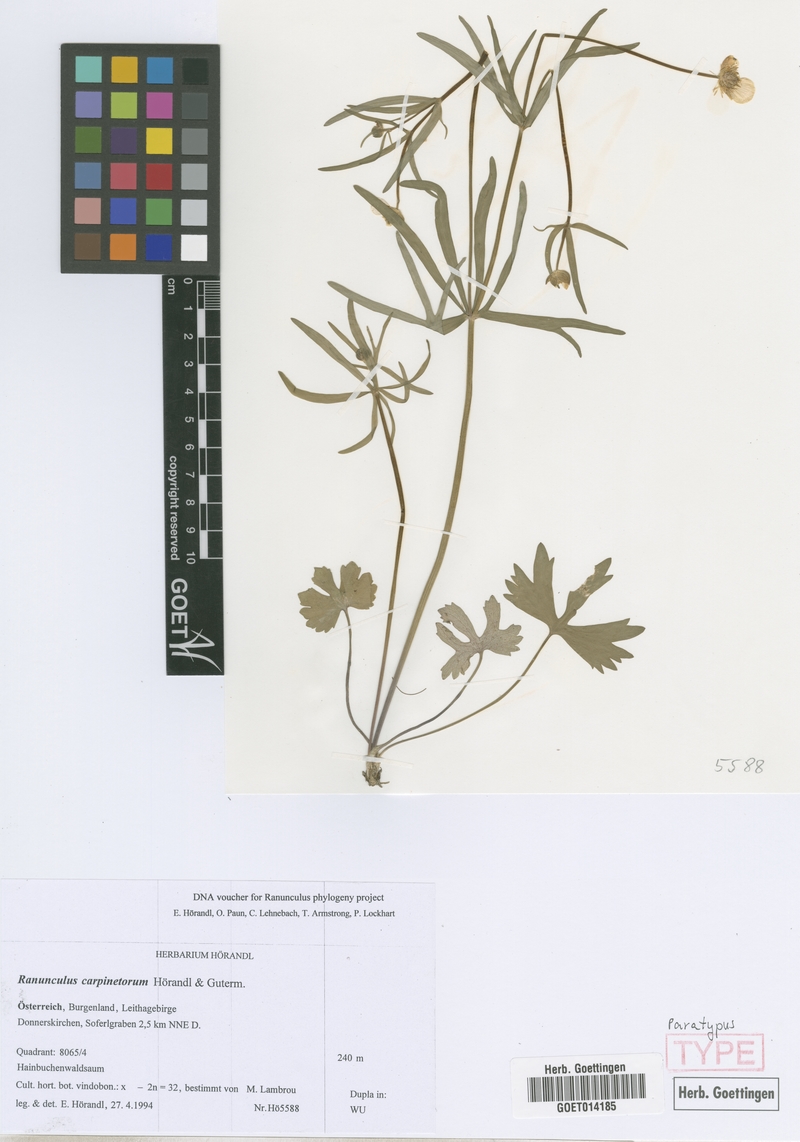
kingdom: Plantae
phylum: Tracheophyta
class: Magnoliopsida
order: Ranunculales
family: Ranunculaceae
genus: Ranunculus
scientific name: Ranunculus carpinetorum
